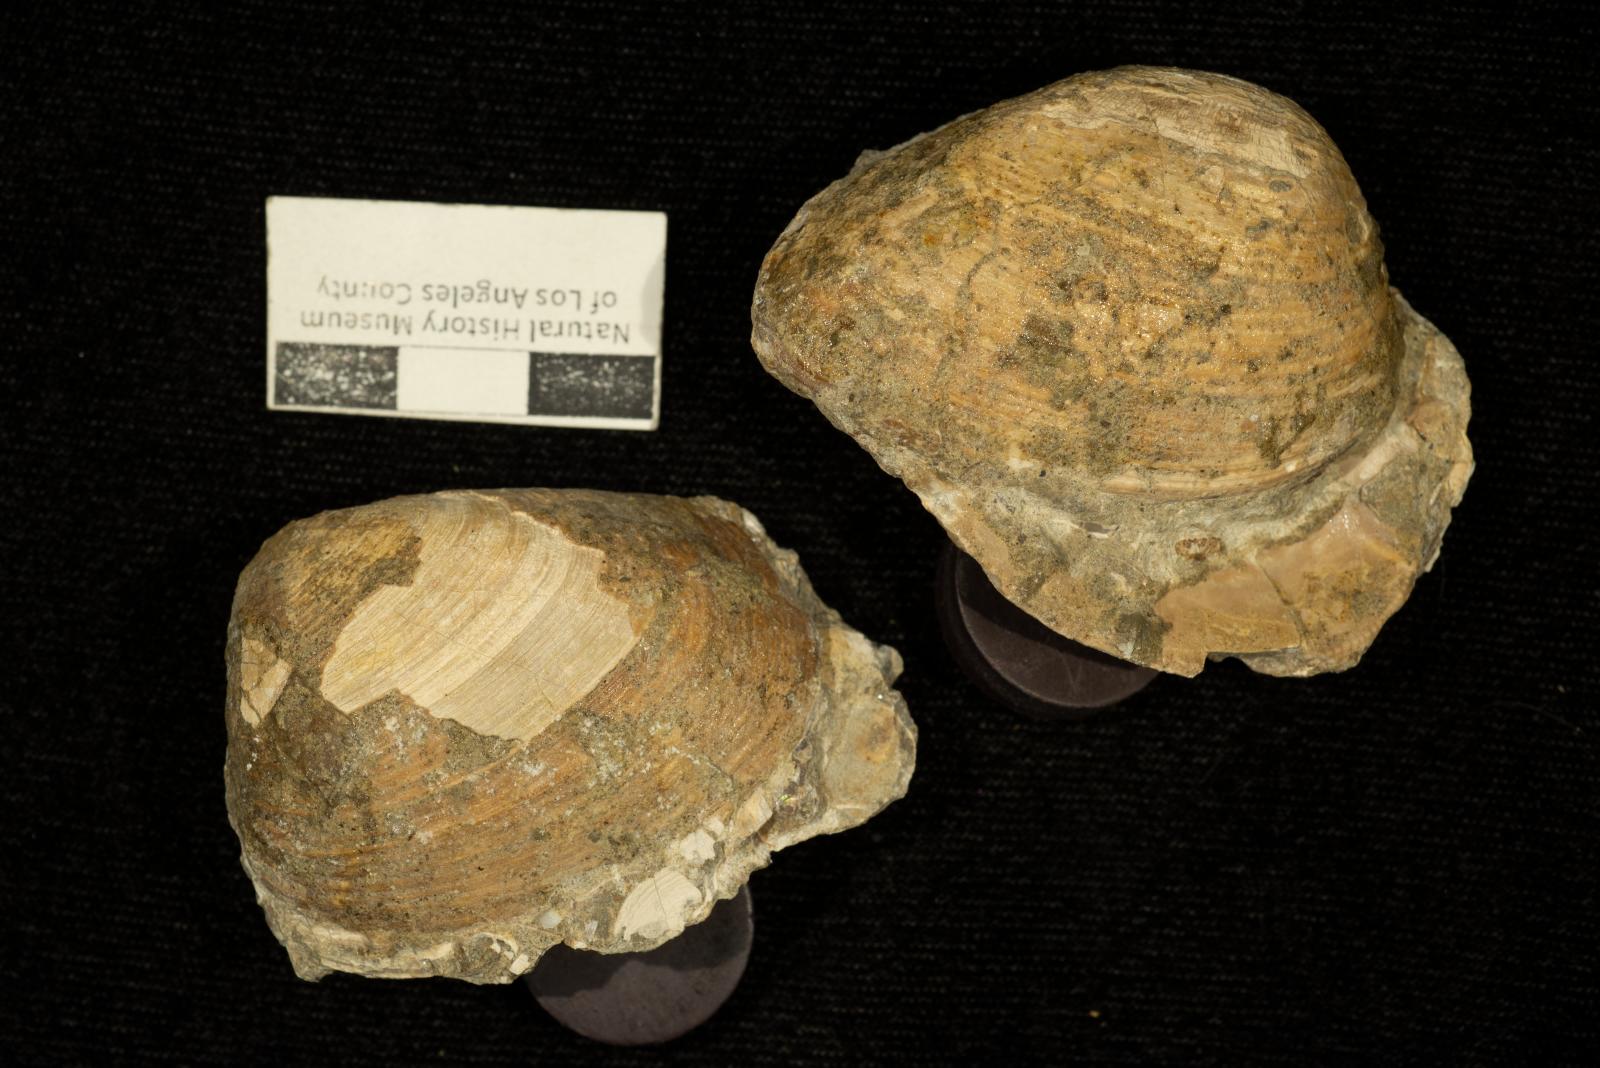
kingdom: Animalia
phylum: Mollusca
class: Bivalvia
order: Carditida
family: Crassatellidae
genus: Crassatella
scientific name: Crassatella elongata
